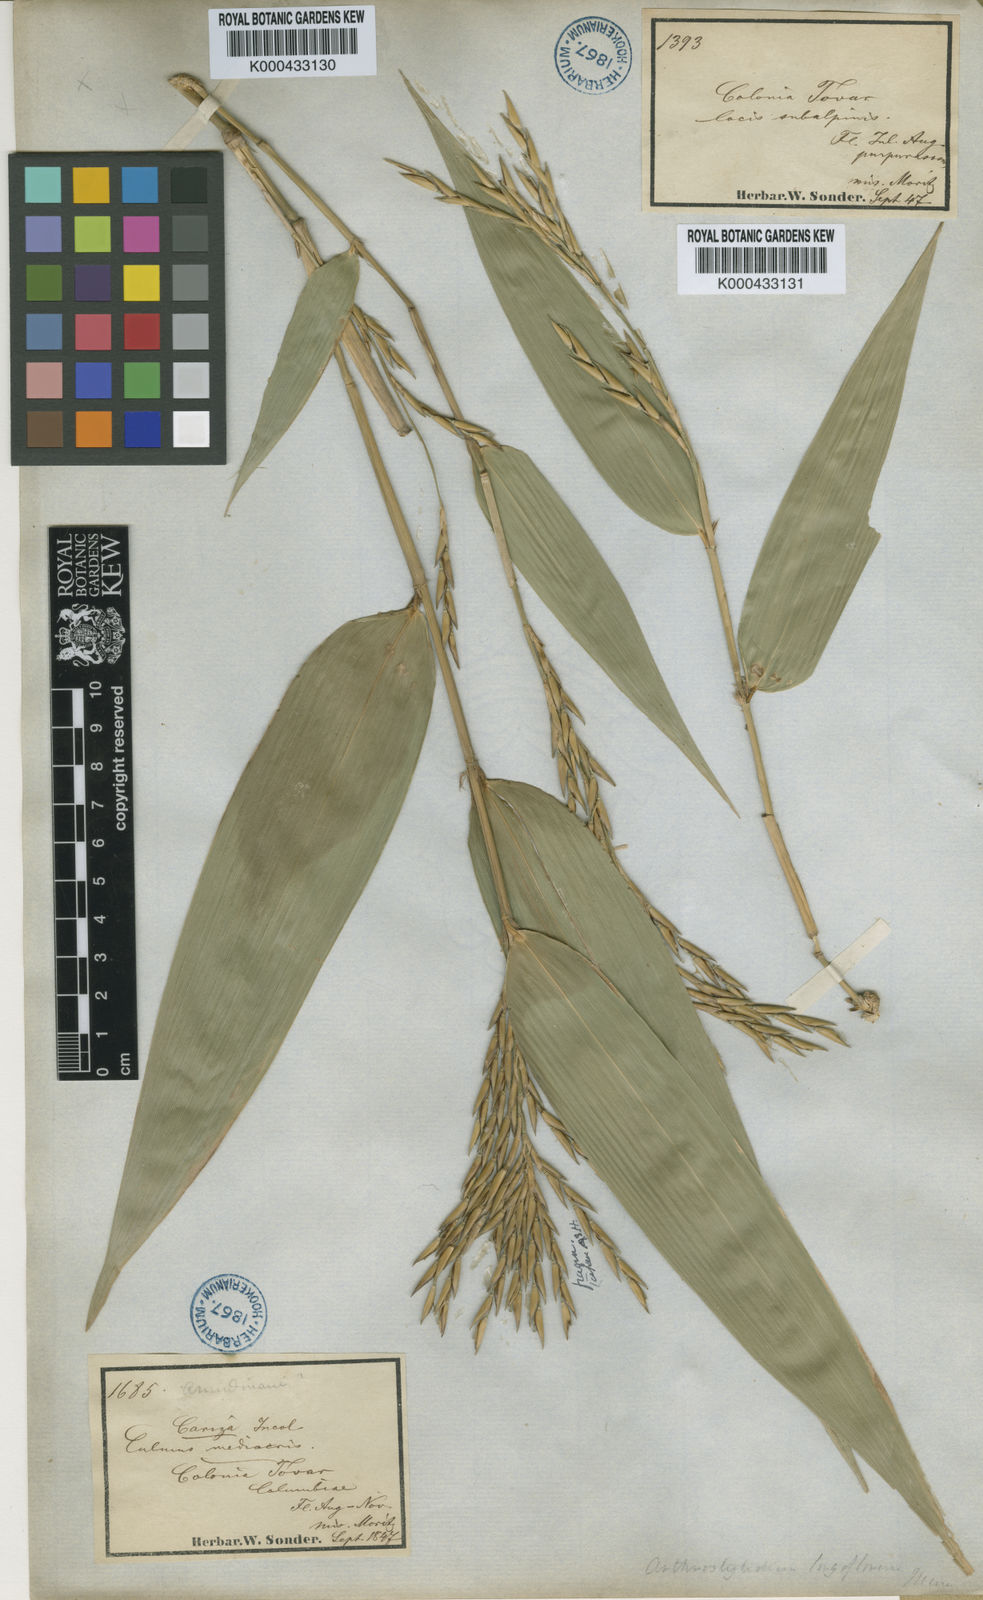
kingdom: Plantae
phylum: Tracheophyta
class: Liliopsida
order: Poales
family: Poaceae
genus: Arthrostylidium
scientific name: Arthrostylidium longiflorum
